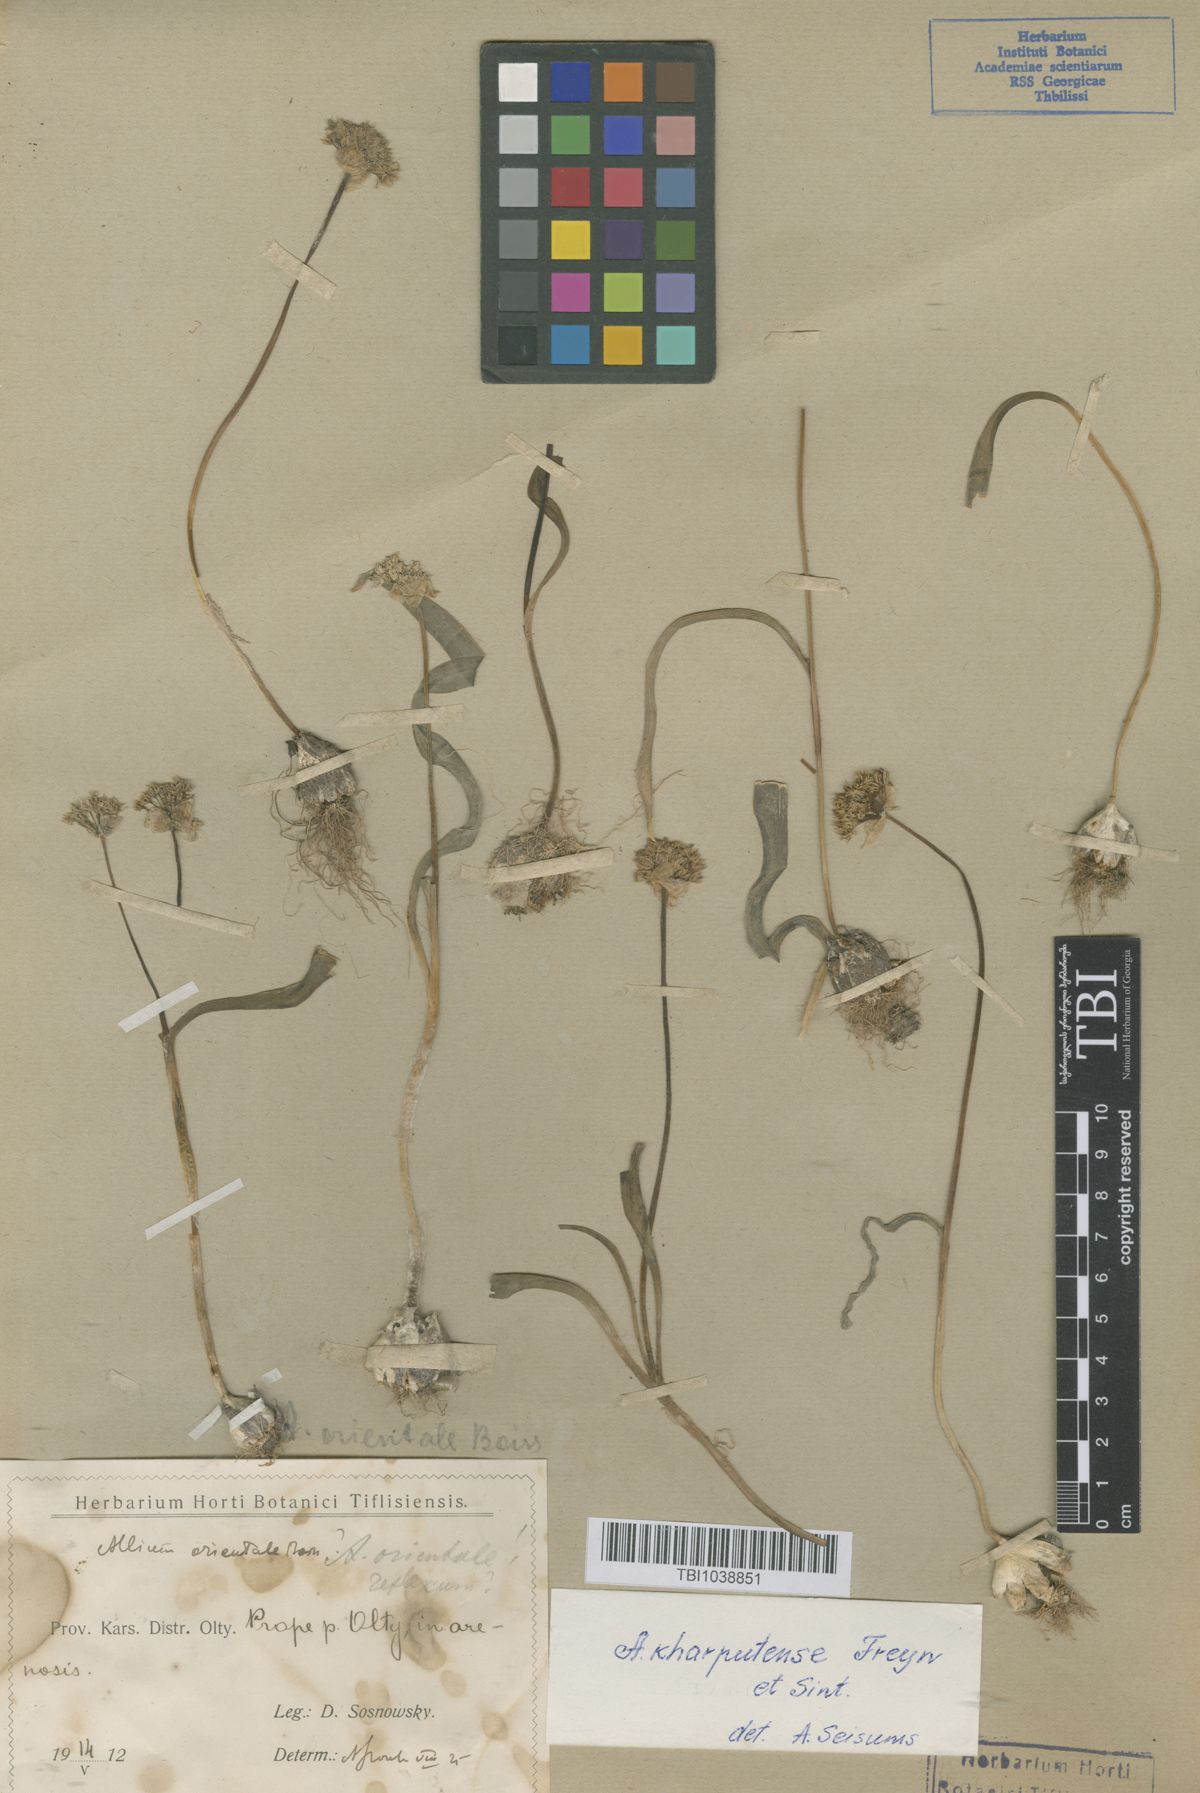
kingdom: Plantae
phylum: Tracheophyta
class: Liliopsida
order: Asparagales
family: Amaryllidaceae
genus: Allium
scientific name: Allium orientale
